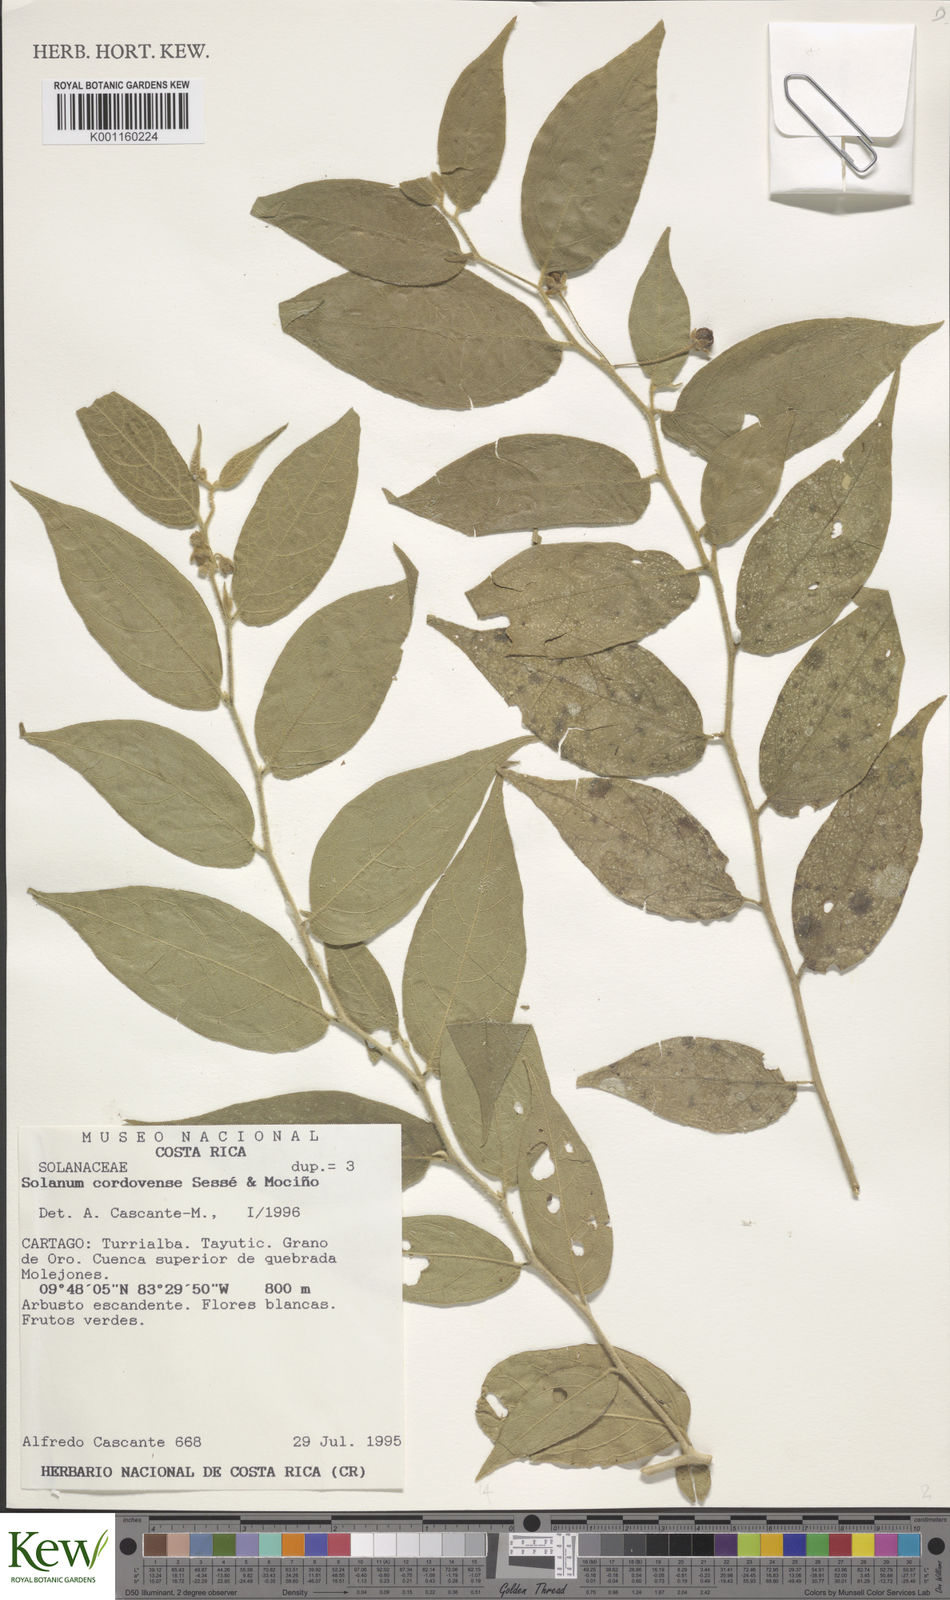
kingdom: Plantae
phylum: Tracheophyta
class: Magnoliopsida
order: Solanales
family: Solanaceae
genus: Solanum
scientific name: Solanum
